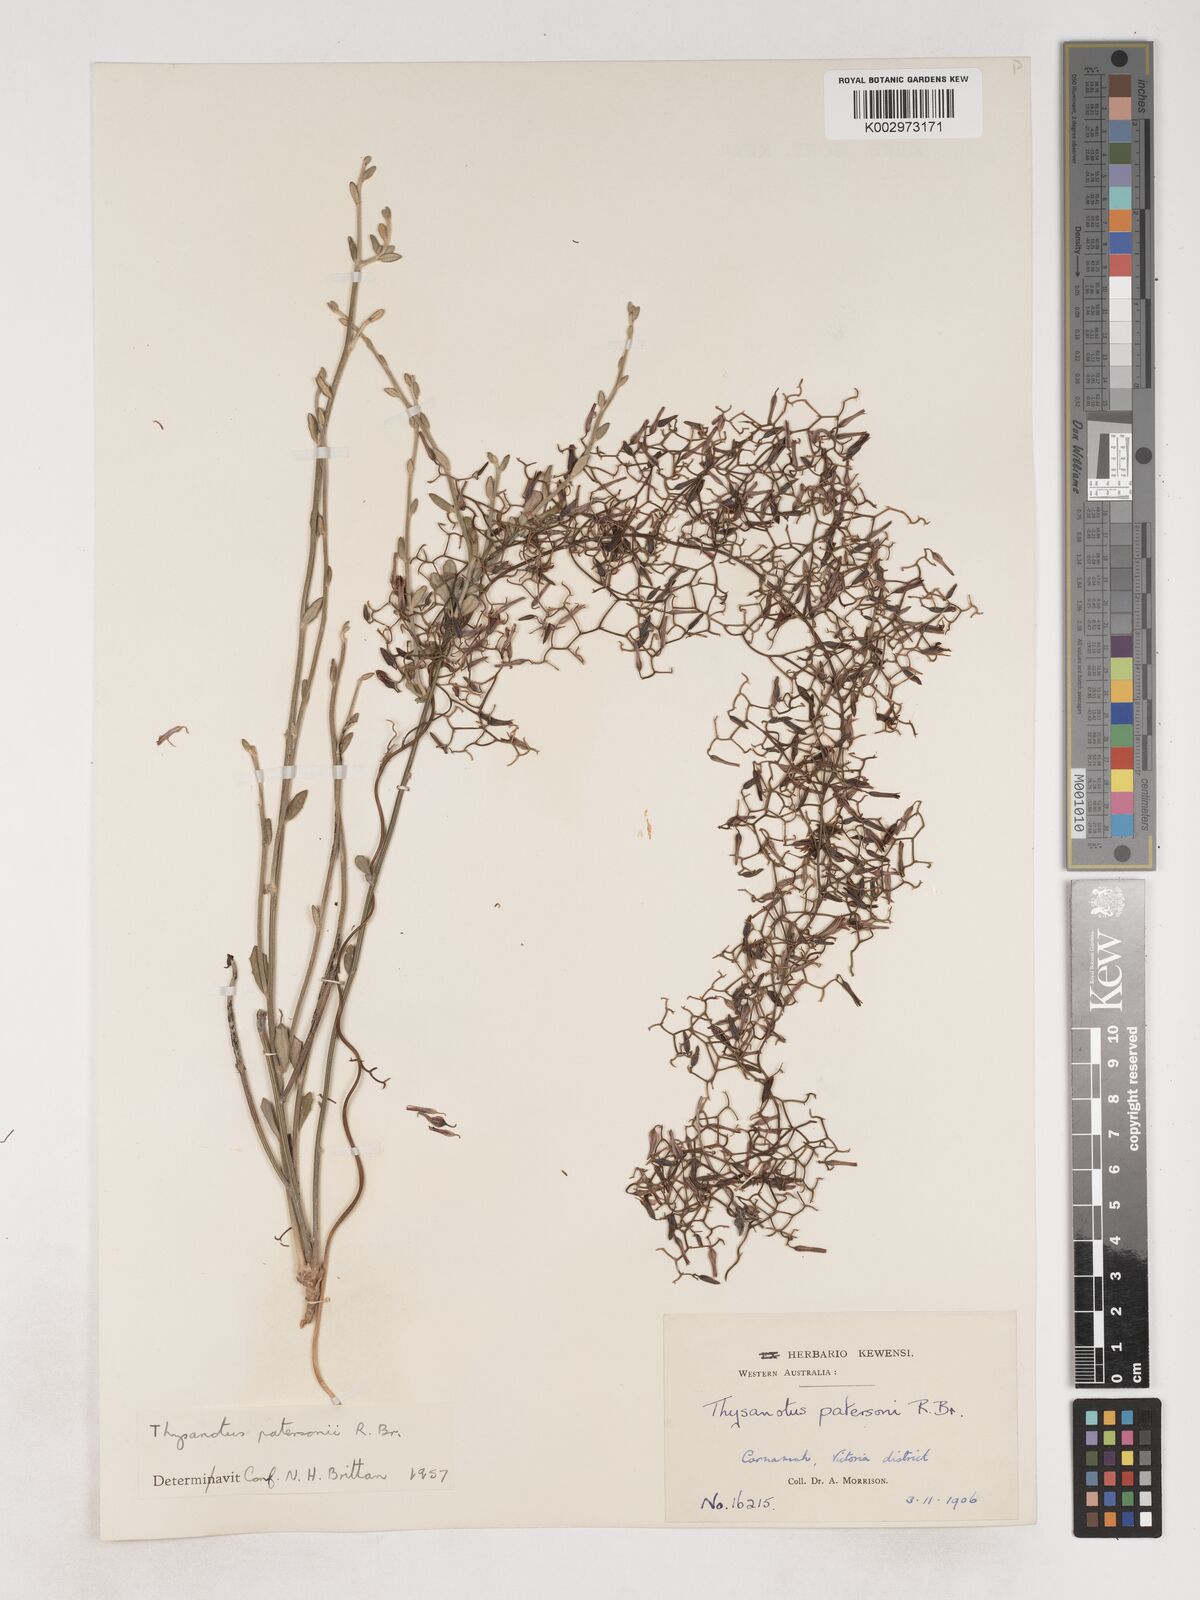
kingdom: Plantae
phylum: Tracheophyta
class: Liliopsida
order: Asparagales
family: Asparagaceae
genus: Thysanotus
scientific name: Thysanotus patersonii
